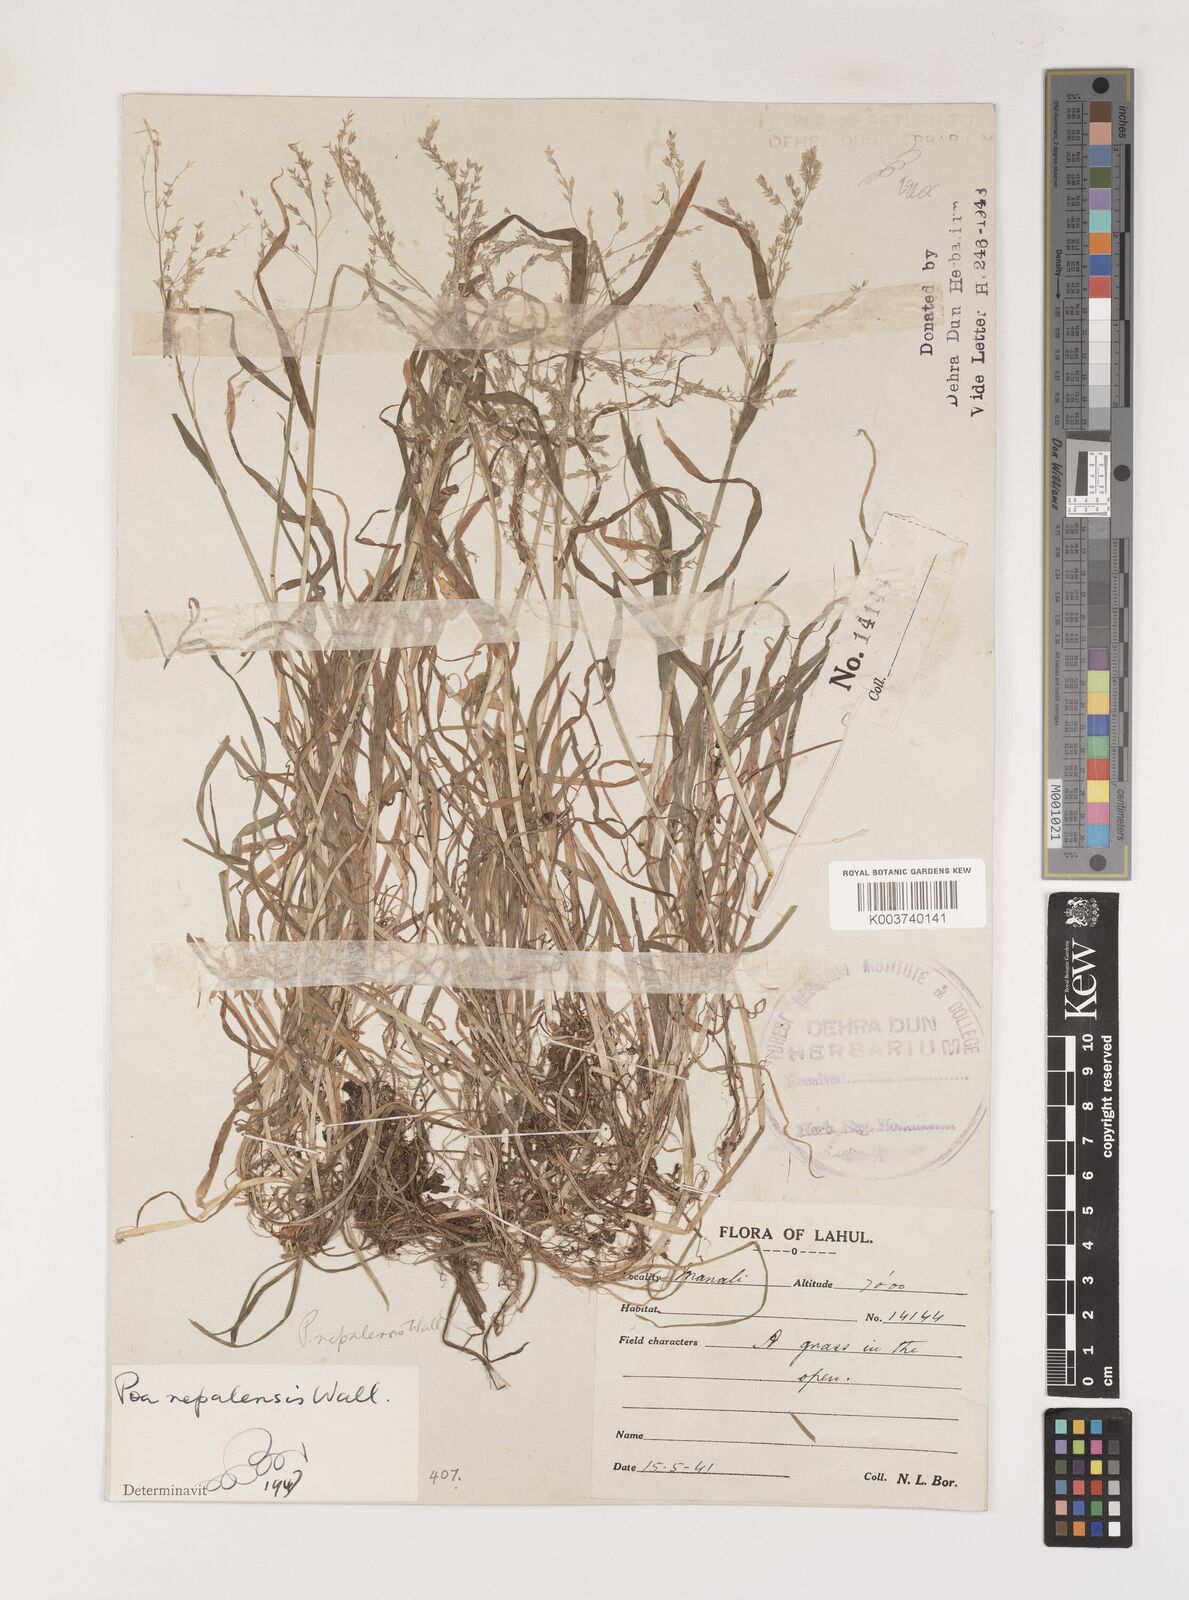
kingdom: Plantae
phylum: Tracheophyta
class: Liliopsida
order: Poales
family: Poaceae
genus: Poa
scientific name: Poa nepalensis
